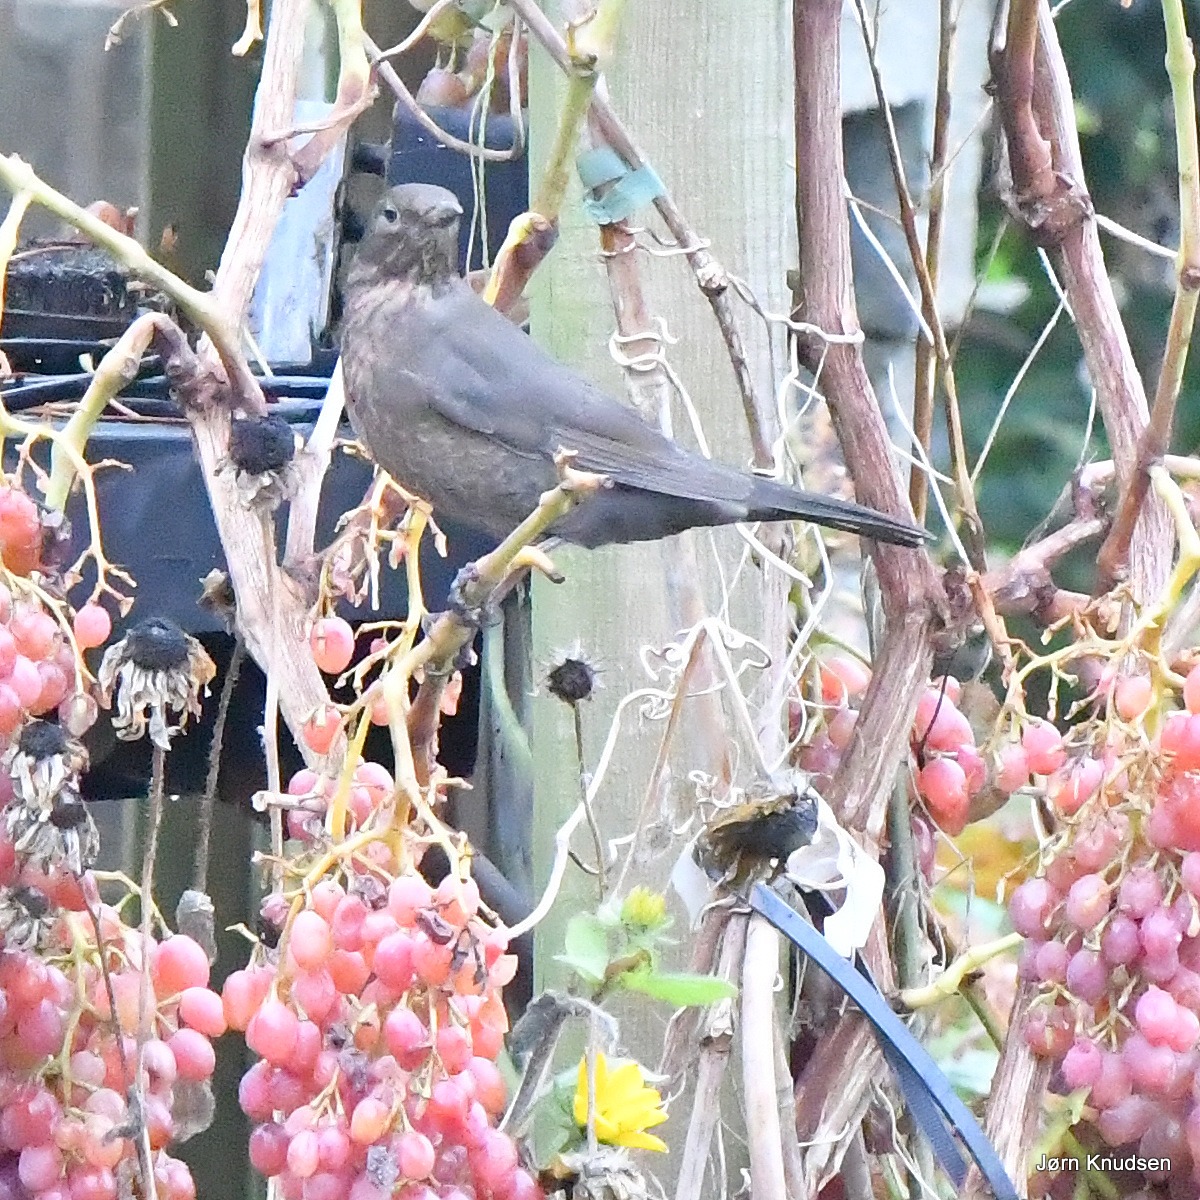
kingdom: Animalia
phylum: Chordata
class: Aves
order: Passeriformes
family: Turdidae
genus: Turdus
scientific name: Turdus merula
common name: Solsort
